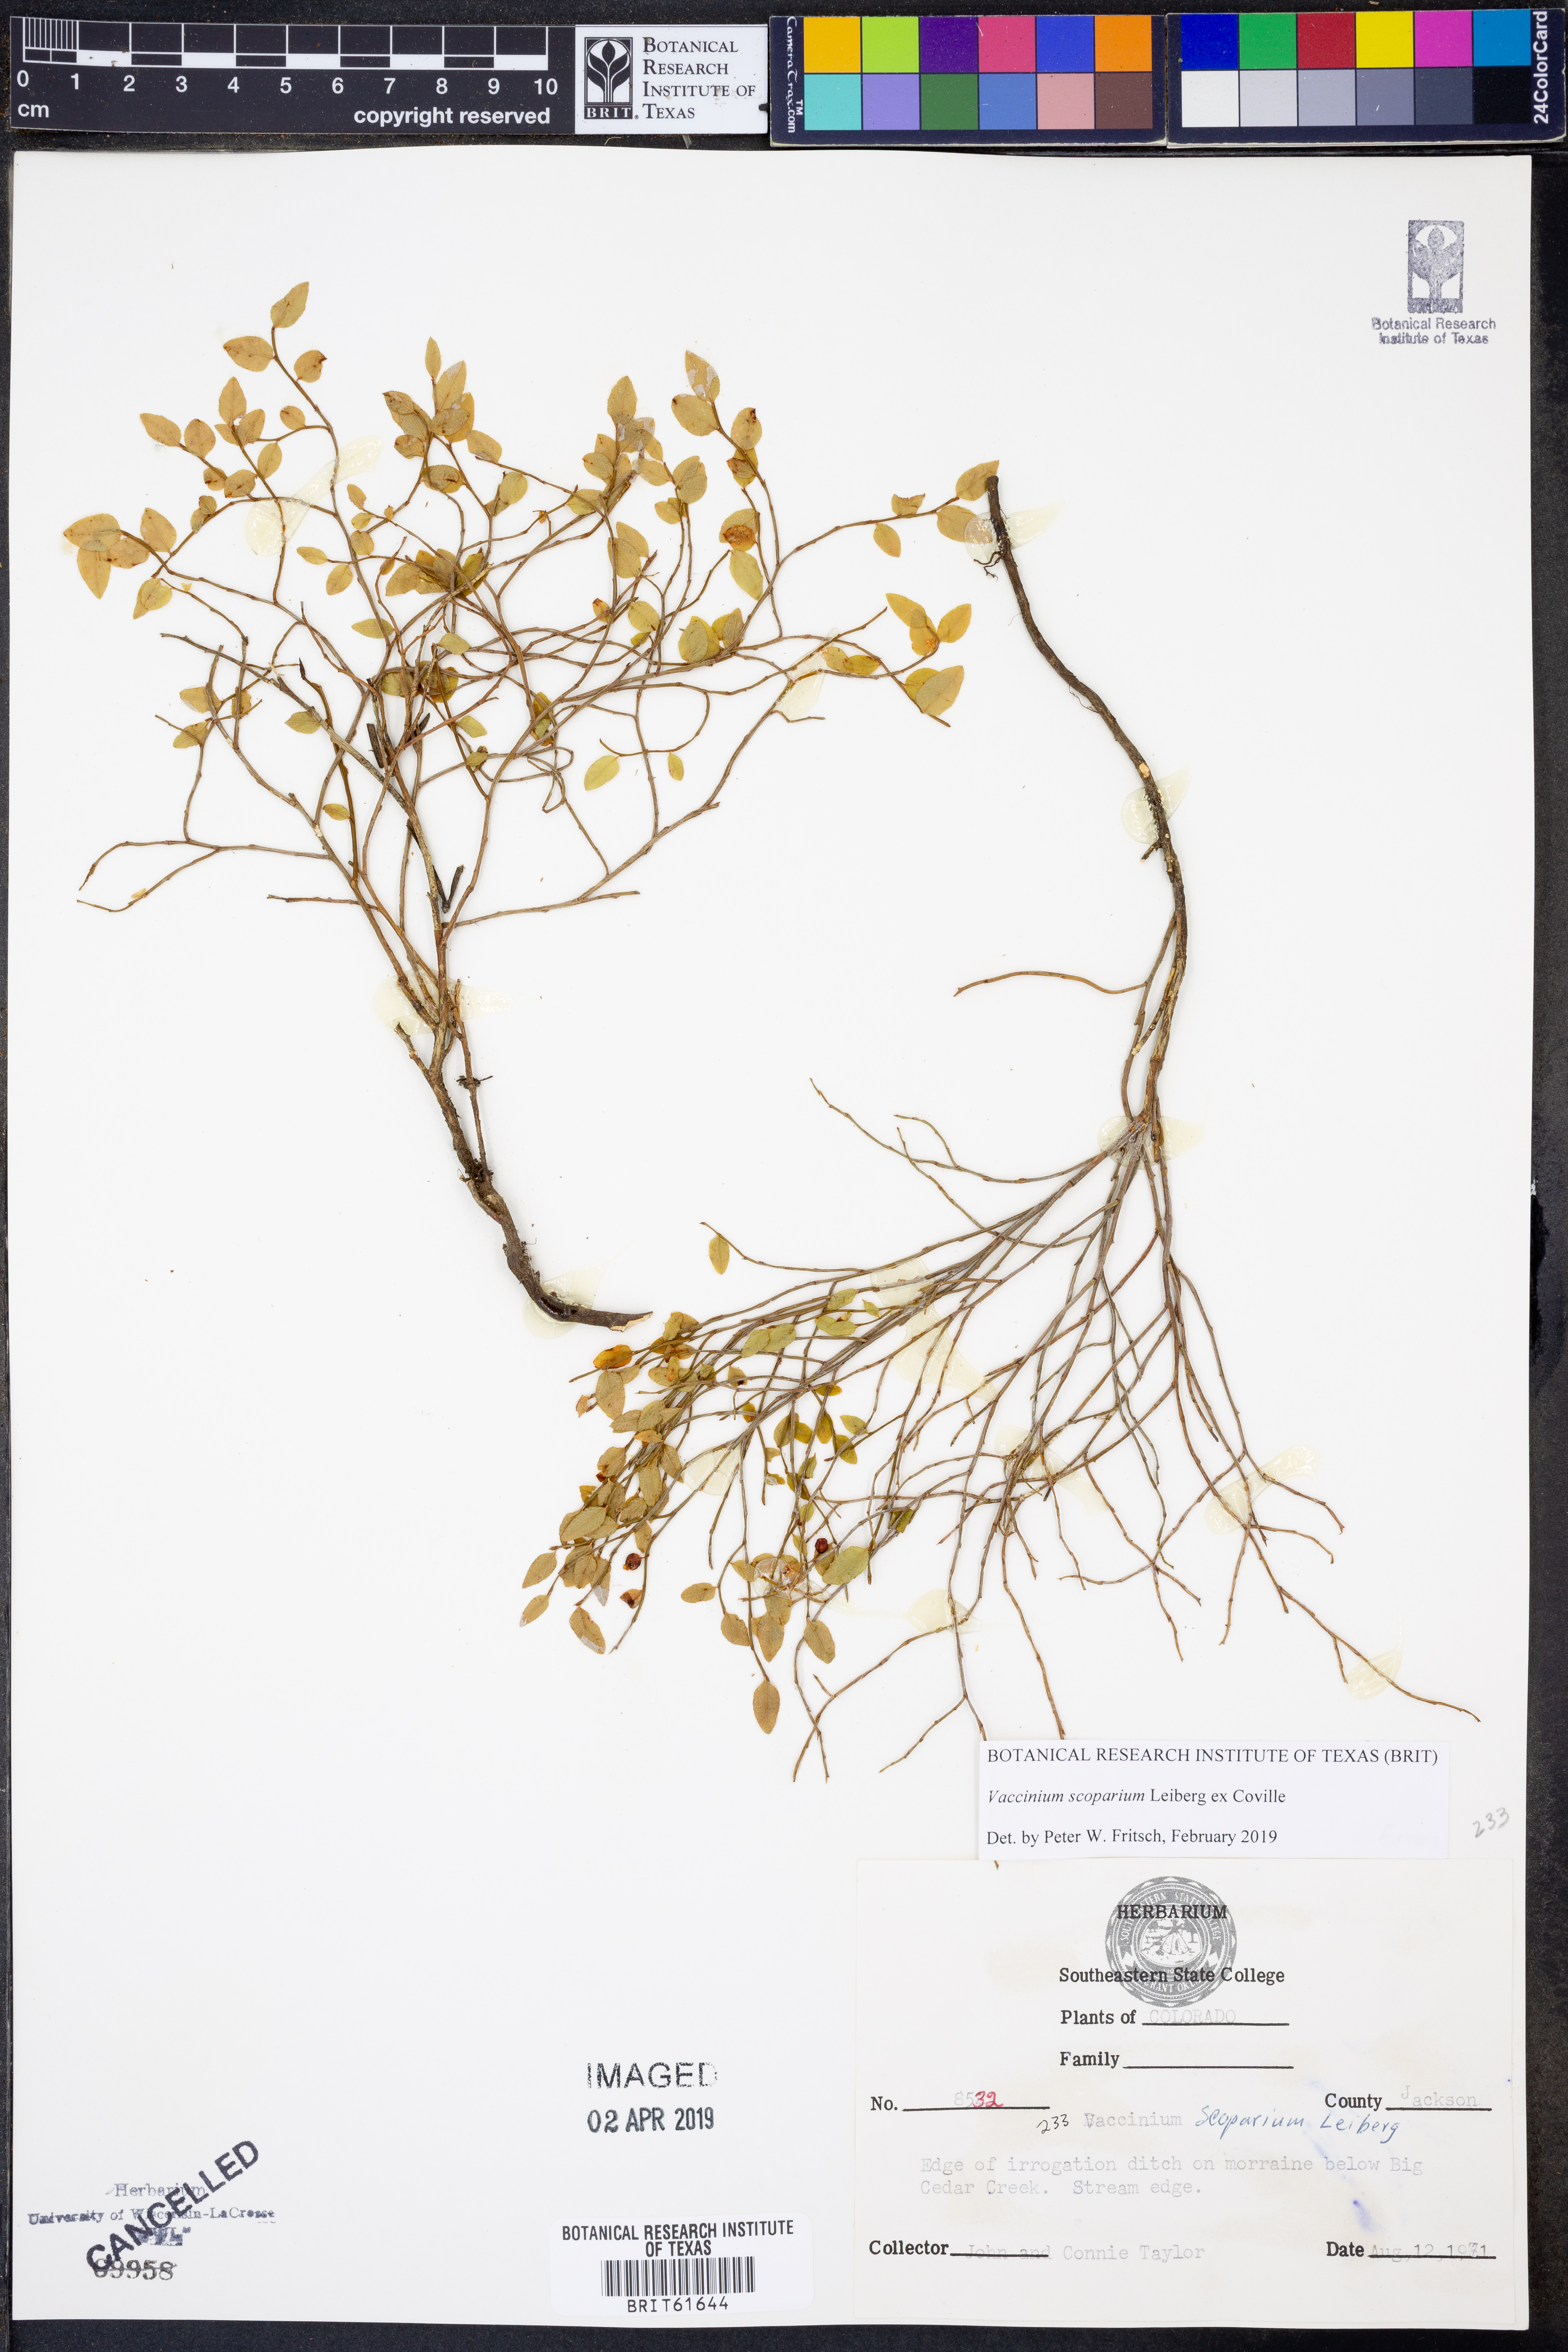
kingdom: Plantae
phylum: Tracheophyta
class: Magnoliopsida
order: Ericales
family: Ericaceae
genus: Vaccinium
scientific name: Vaccinium scoparium
